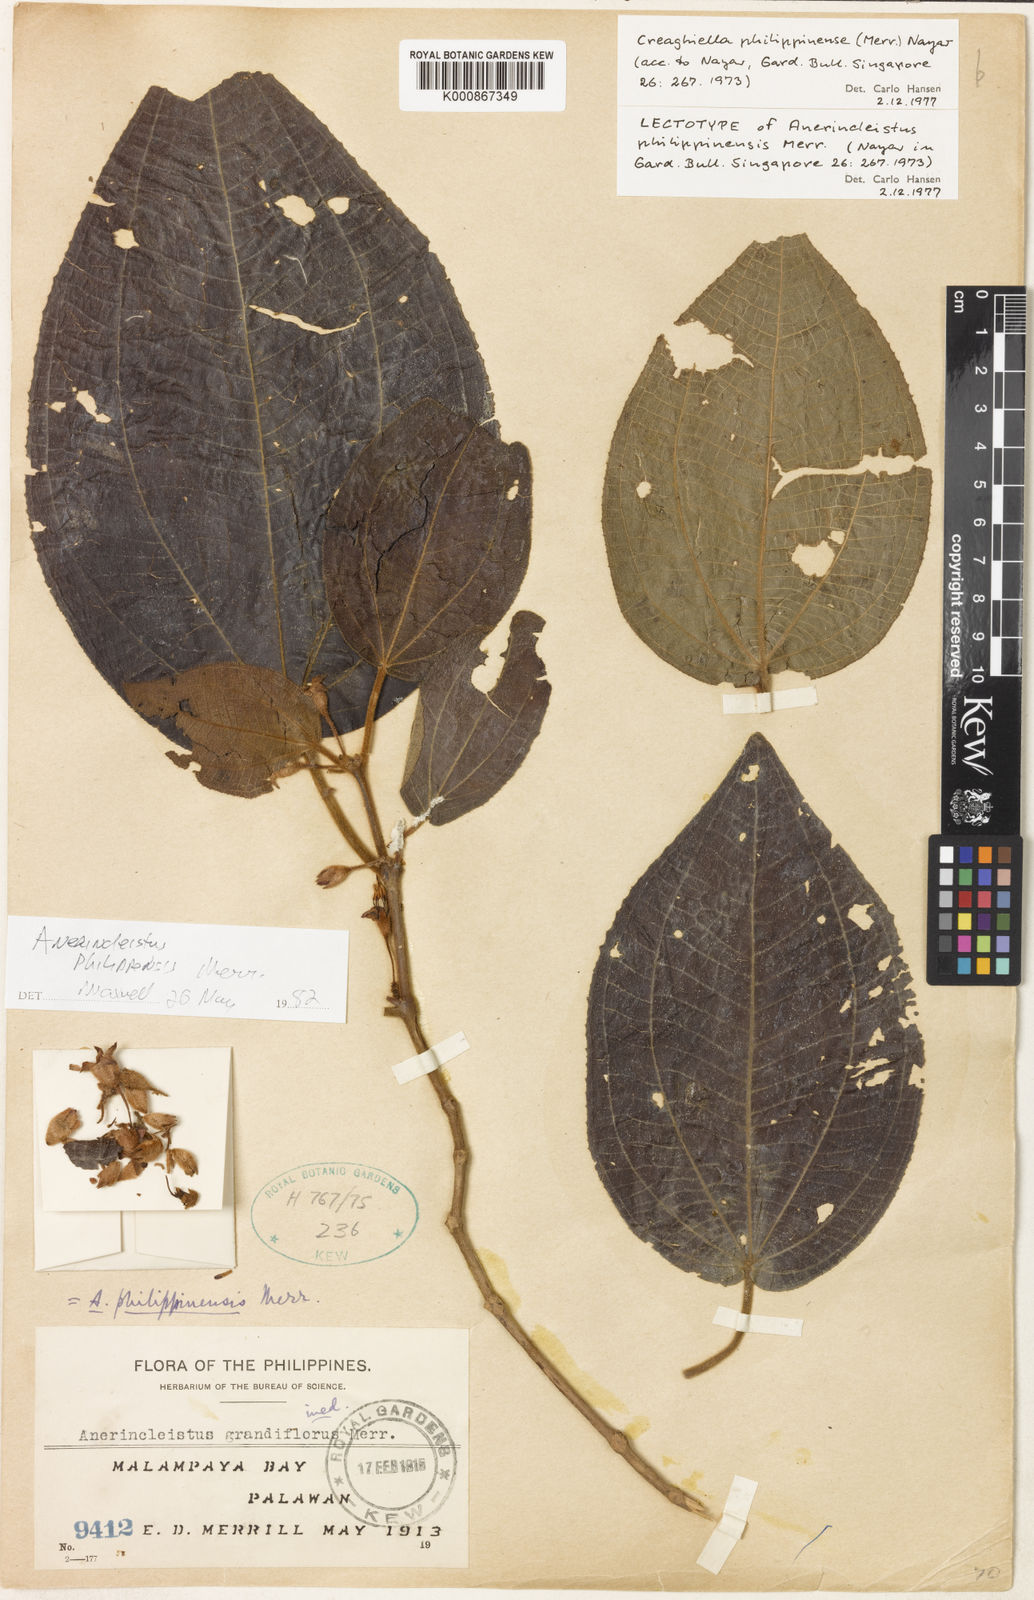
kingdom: Plantae
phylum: Tracheophyta
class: Magnoliopsida
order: Myrtales
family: Melastomataceae
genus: Anerincleistus
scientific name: Anerincleistus philippinensis
